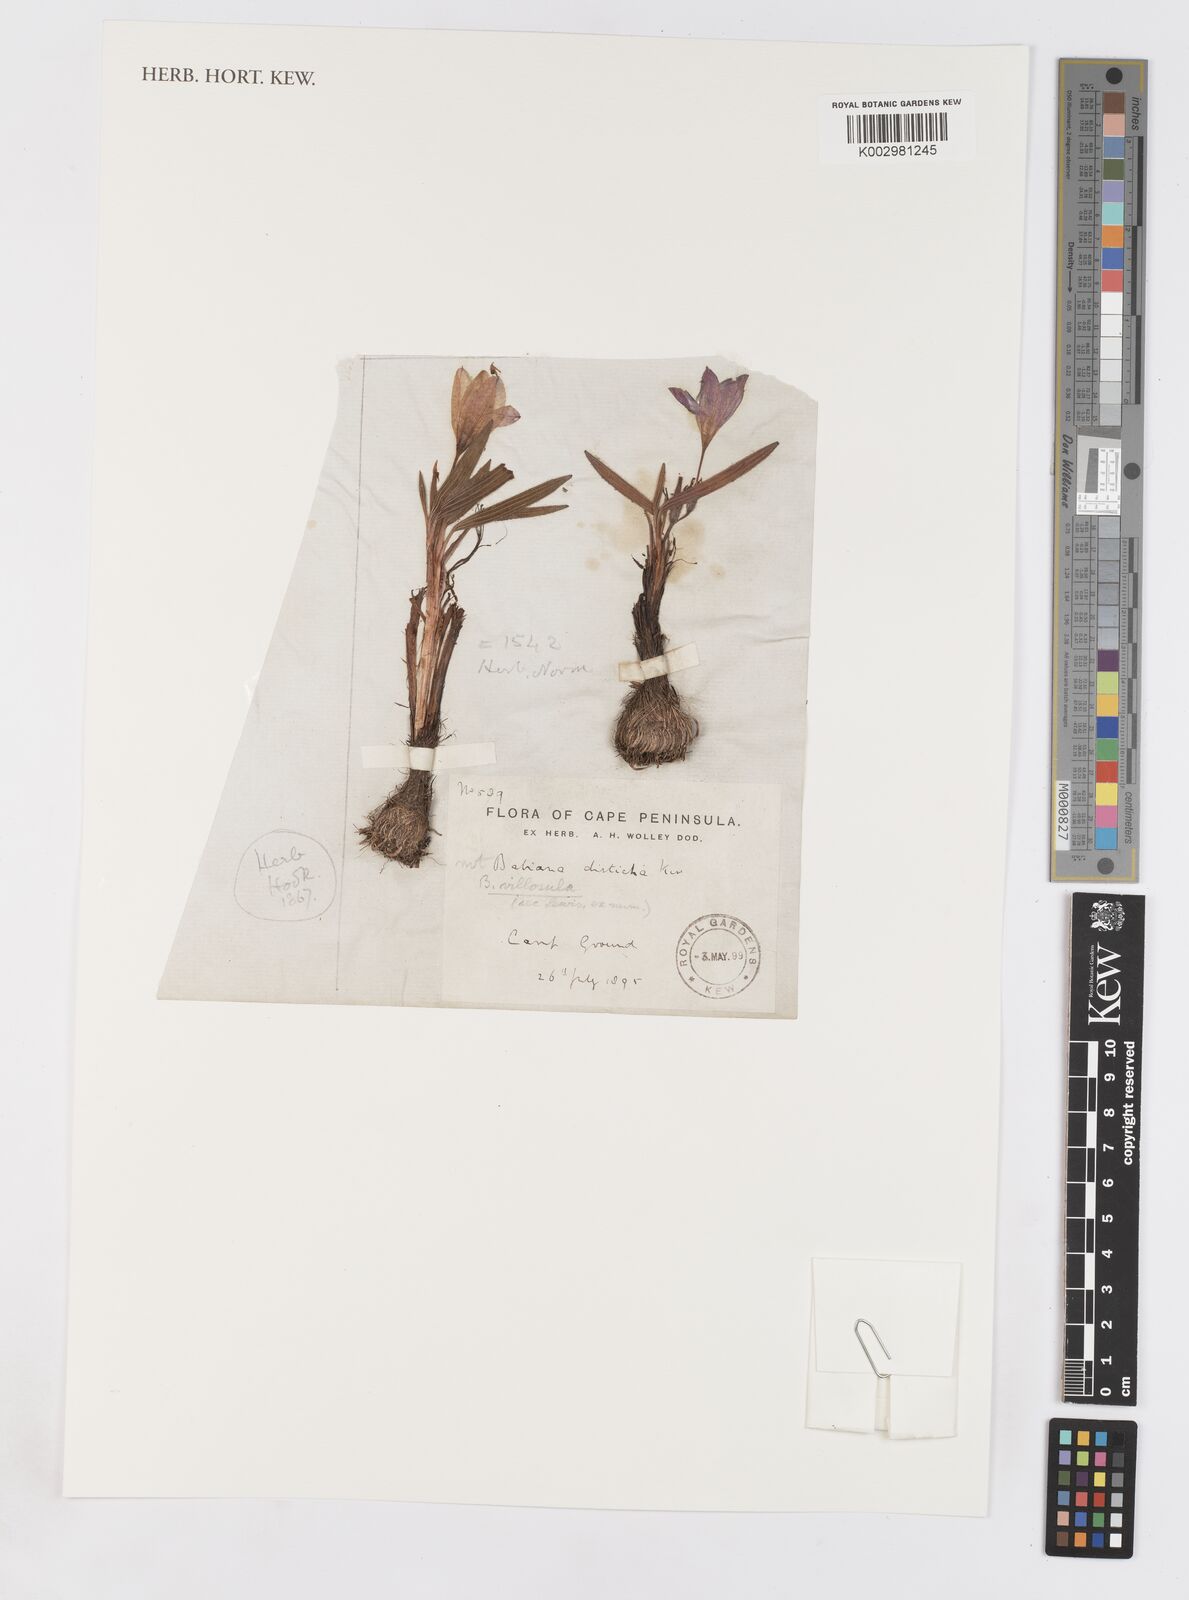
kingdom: Plantae
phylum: Tracheophyta
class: Liliopsida
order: Asparagales
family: Iridaceae
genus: Babiana
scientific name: Babiana villosula
